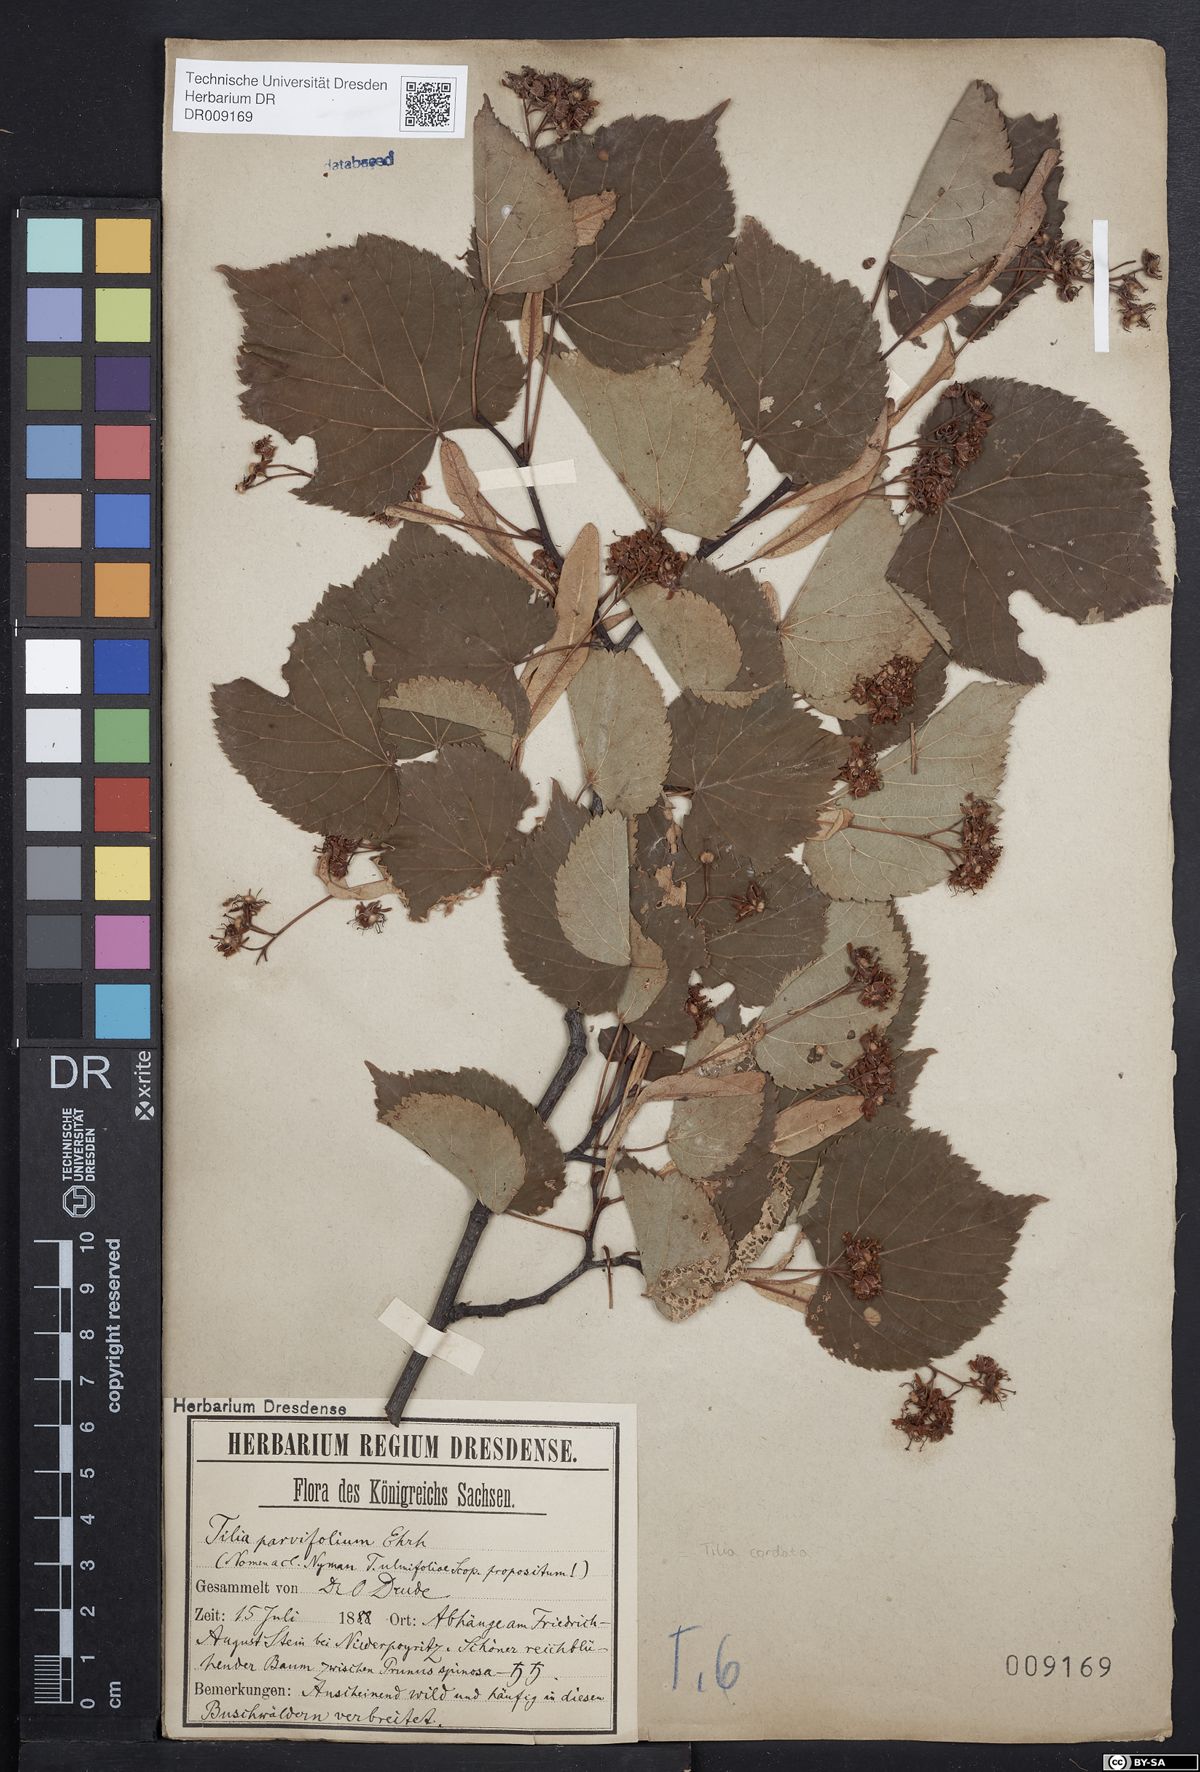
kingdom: Plantae
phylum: Tracheophyta
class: Magnoliopsida
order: Malvales
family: Malvaceae
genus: Tilia
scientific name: Tilia cordata
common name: Small-leaved lime
